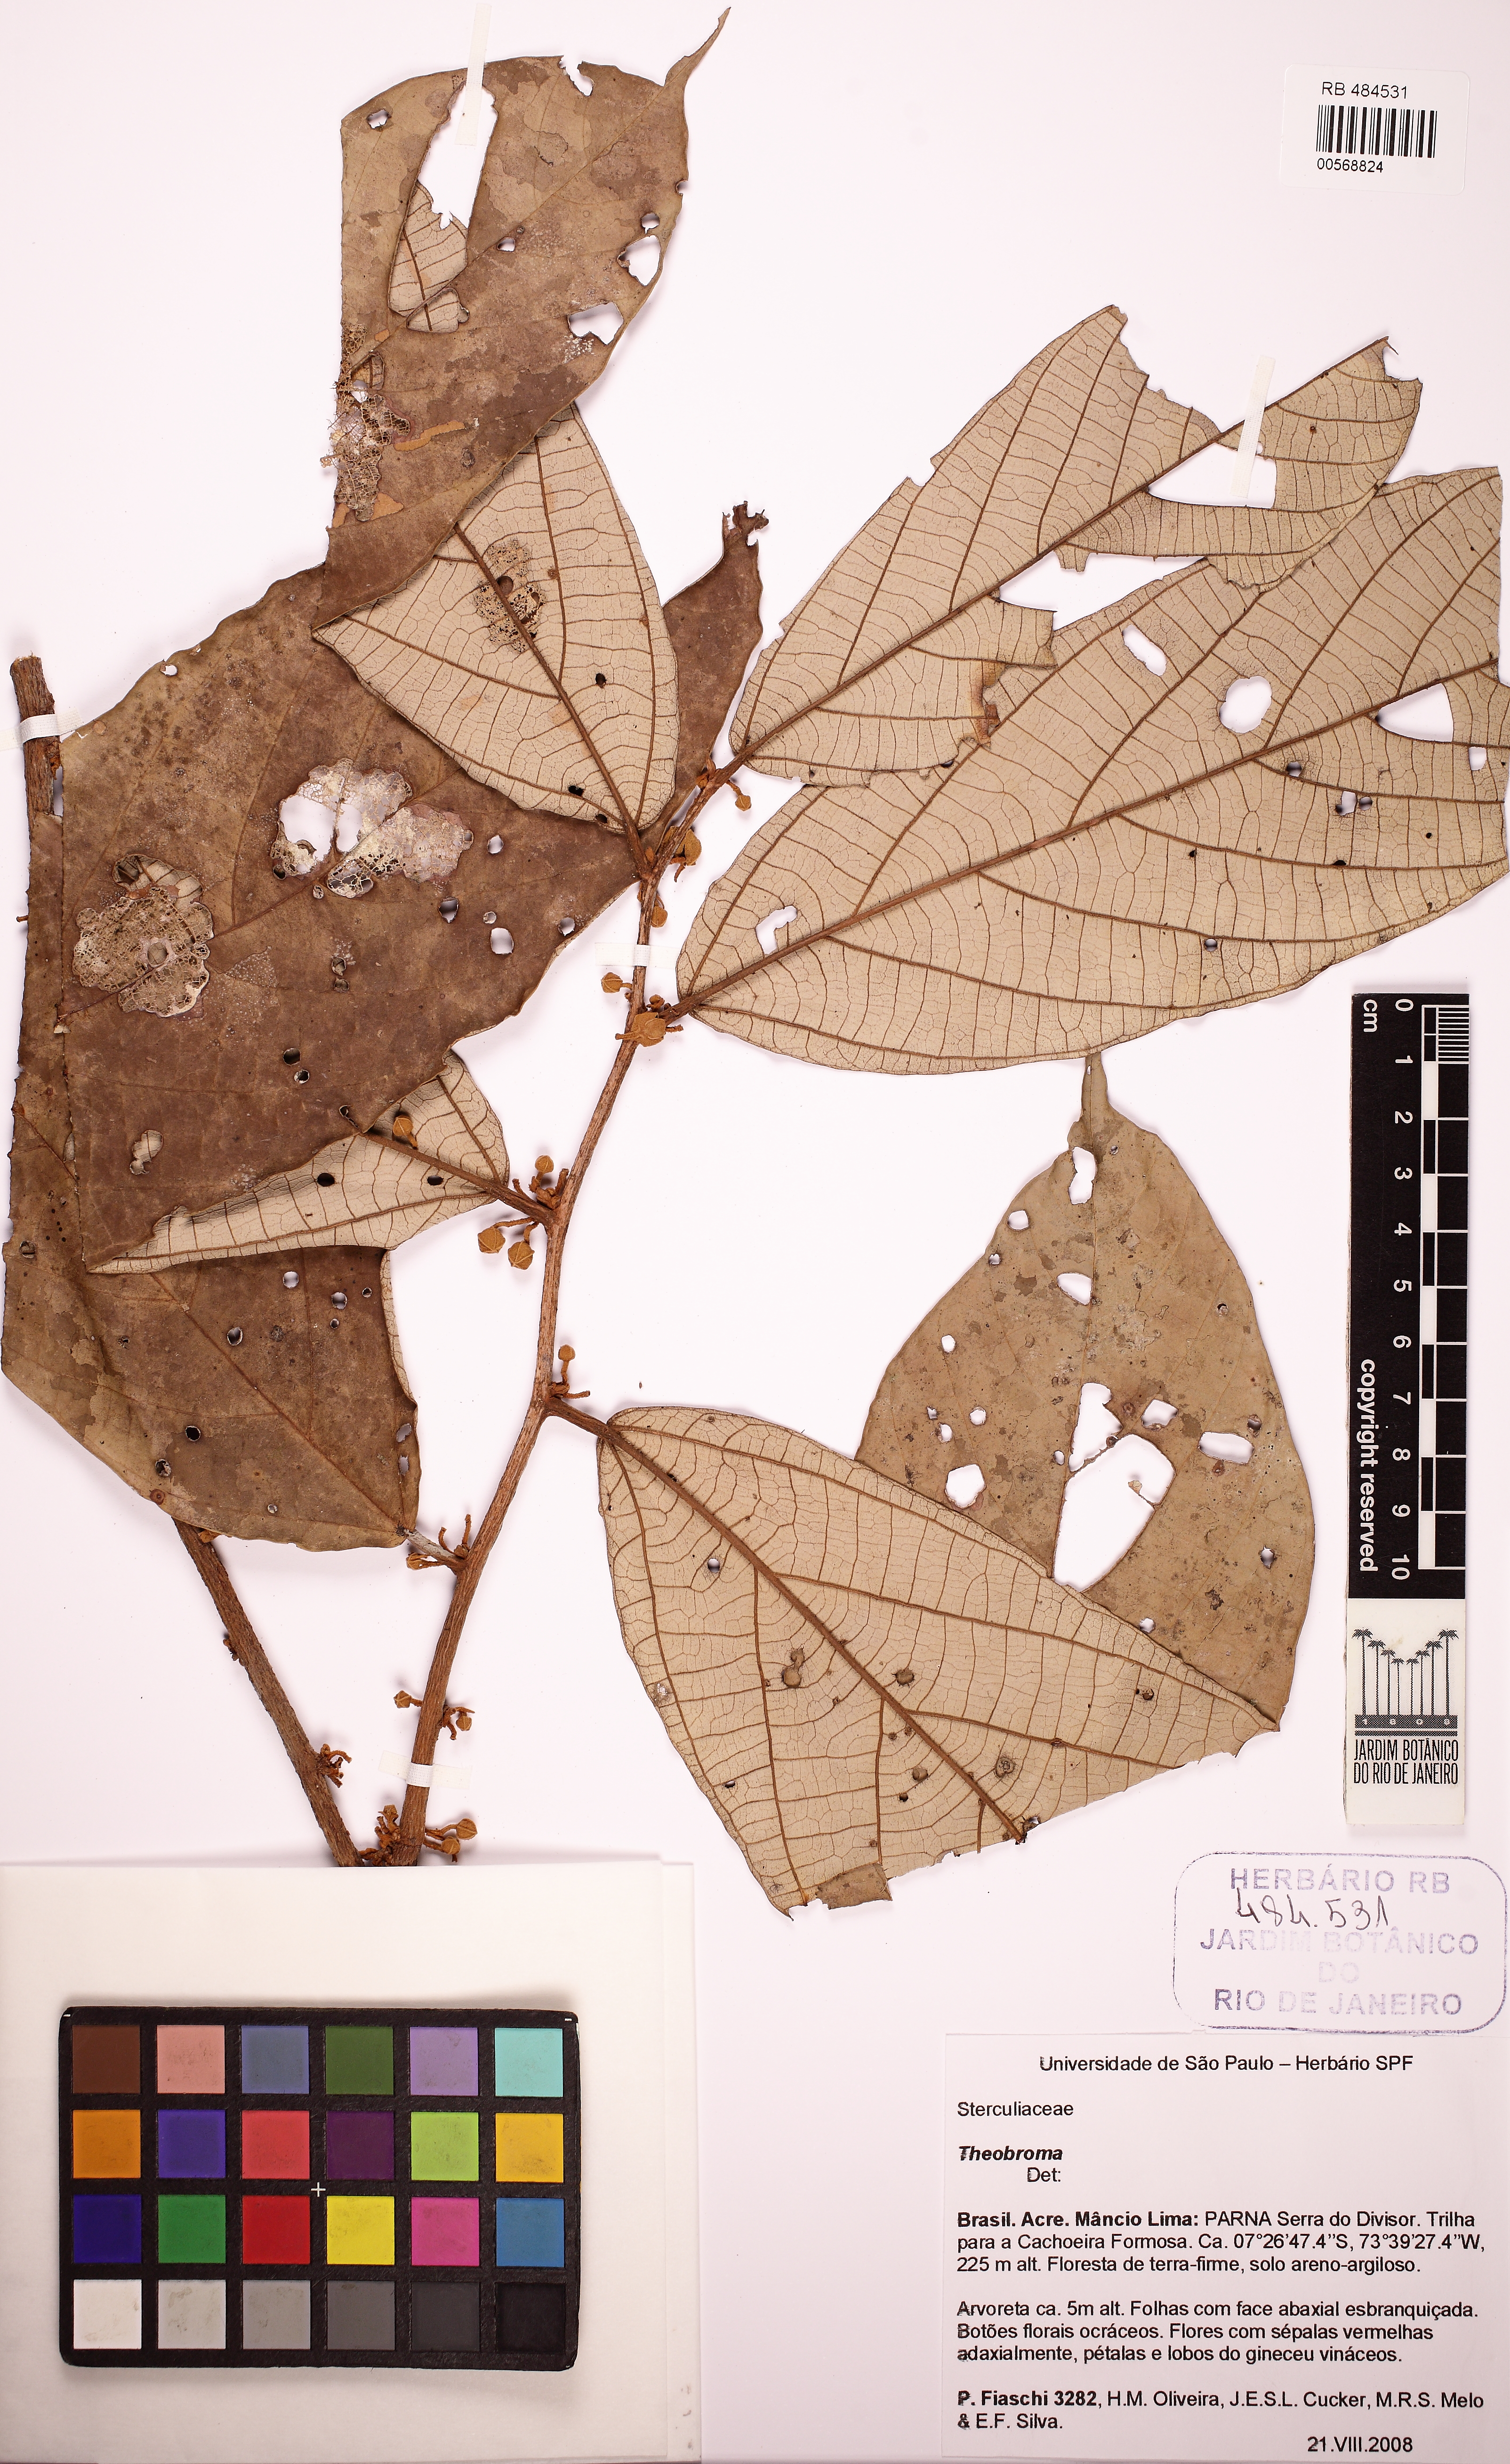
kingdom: Plantae
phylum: Tracheophyta
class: Magnoliopsida
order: Malvales
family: Malvaceae
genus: Theobroma
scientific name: Theobroma subincanum
